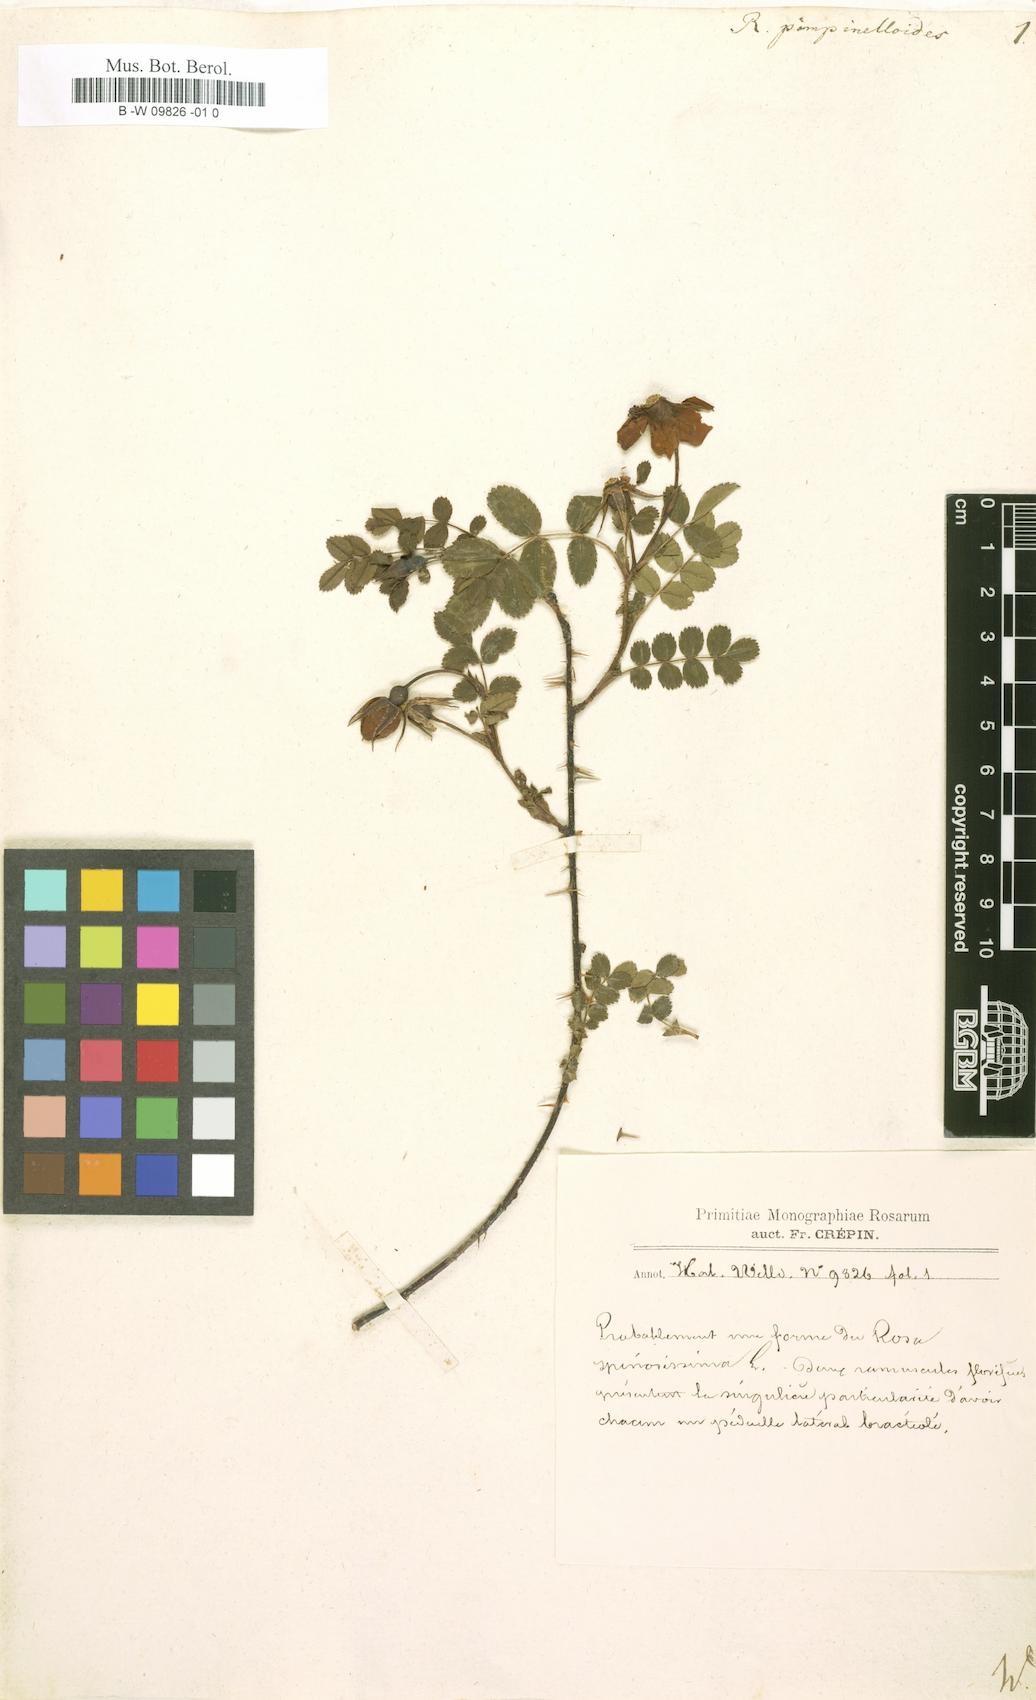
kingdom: Plantae
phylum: Tracheophyta
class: Magnoliopsida
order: Rosales
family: Rosaceae
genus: Rosa
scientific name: Rosa spinosissima
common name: Burnet rose
